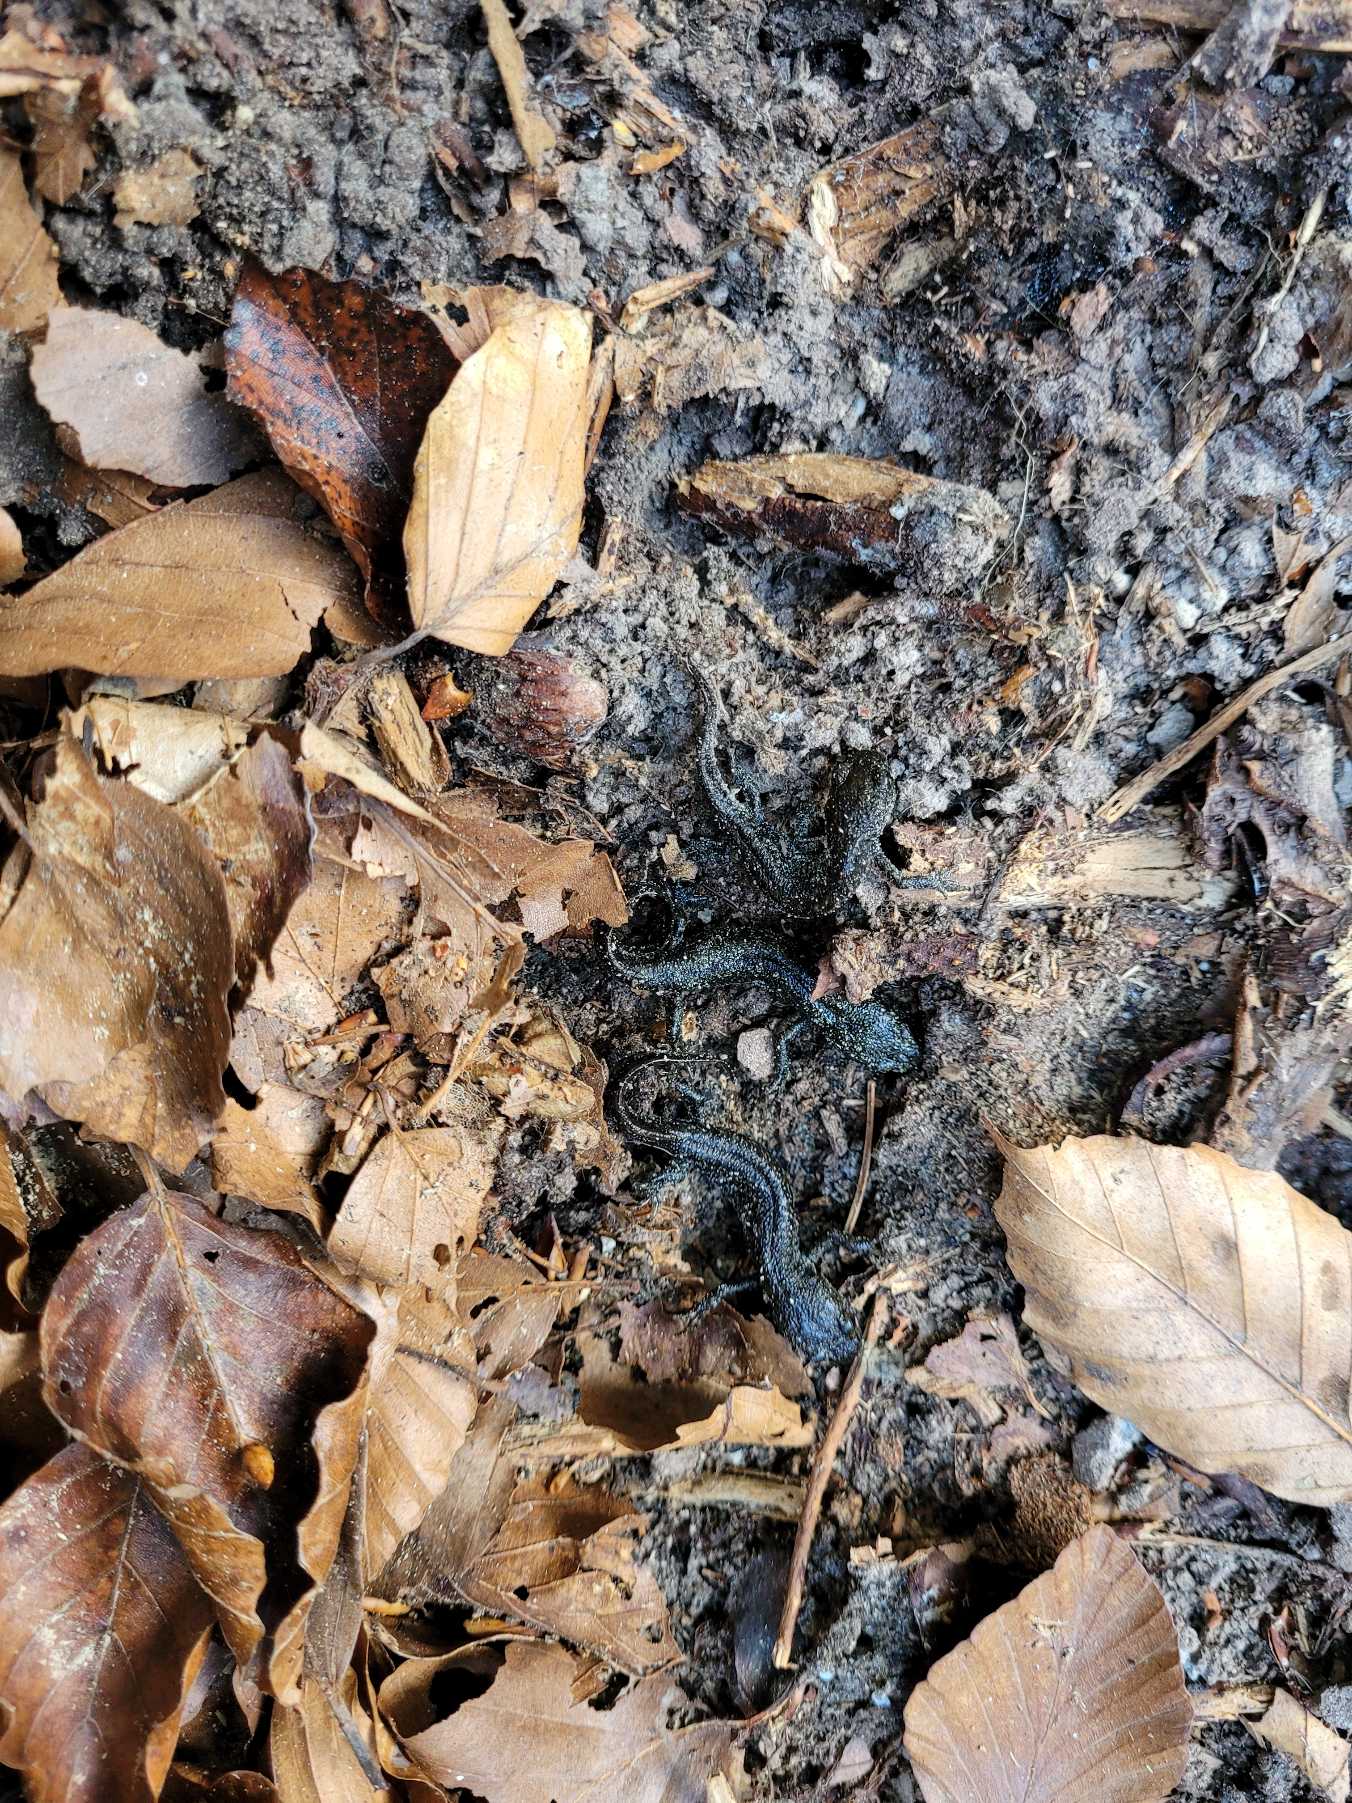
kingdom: Animalia
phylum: Chordata
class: Amphibia
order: Caudata
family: Salamandridae
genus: Triturus
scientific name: Triturus cristatus
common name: Stor vandsalamander
